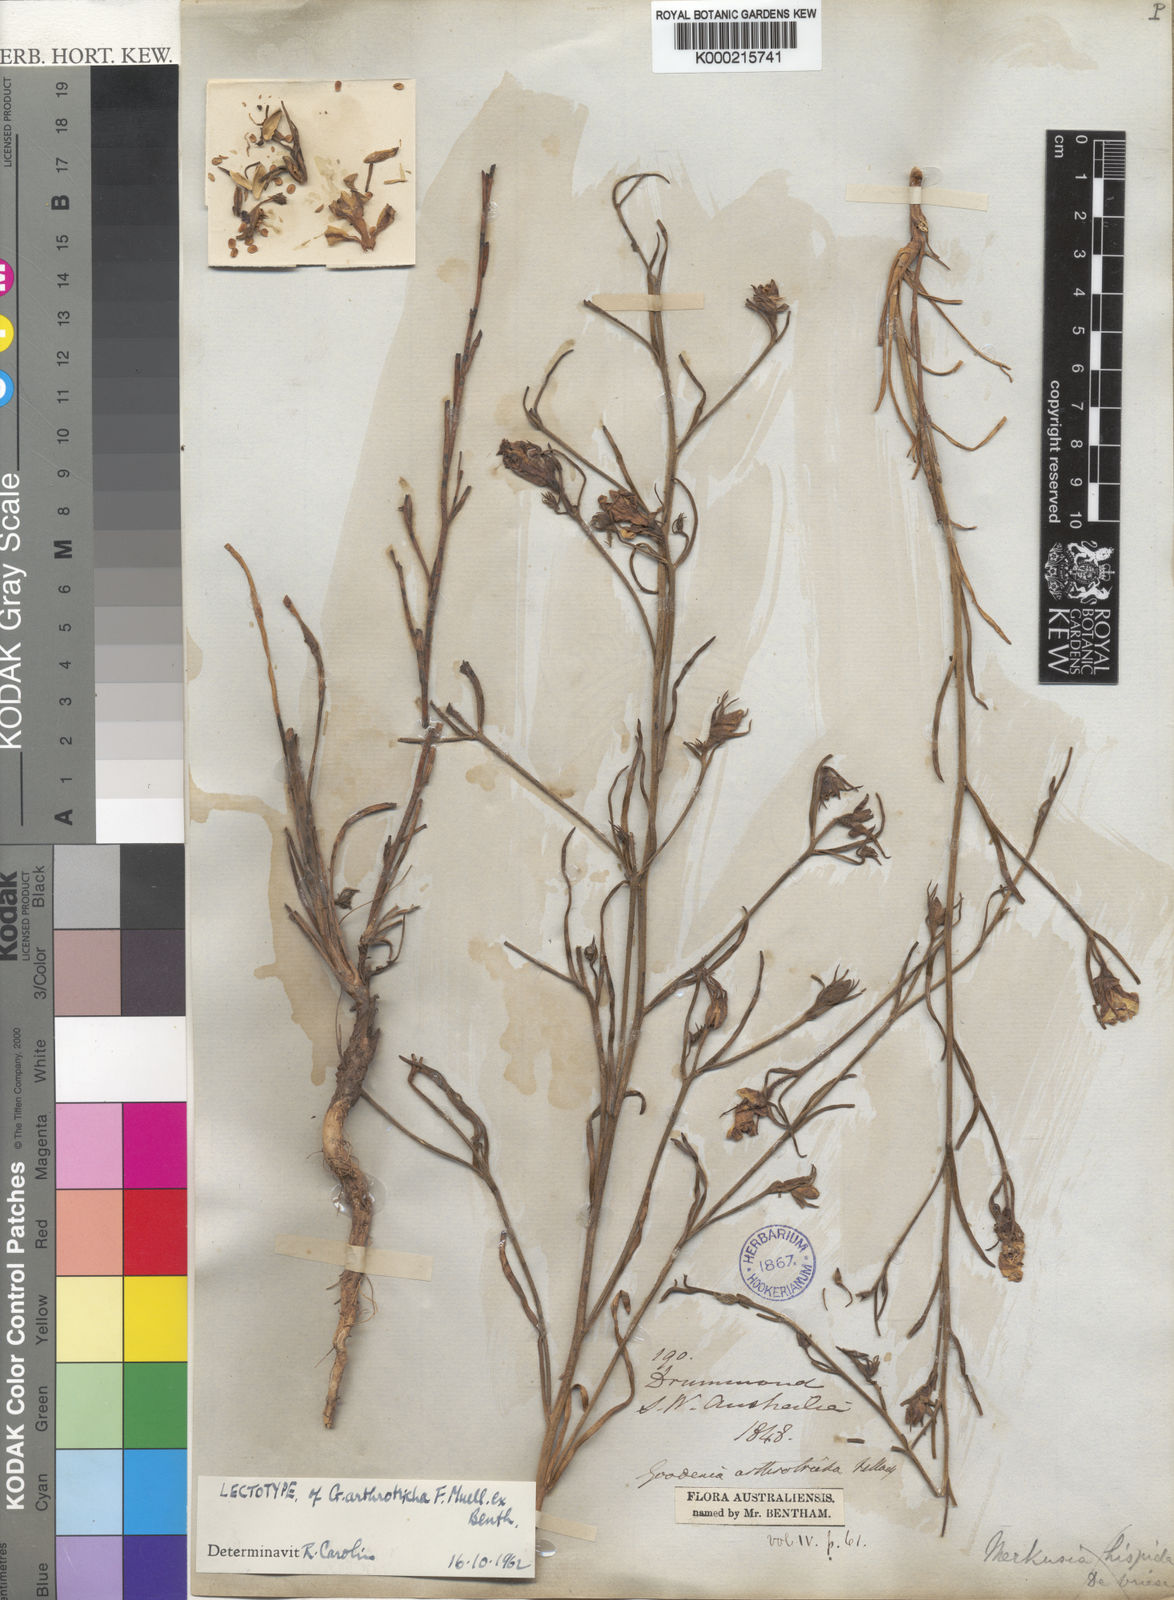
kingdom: Plantae
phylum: Tracheophyta
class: Magnoliopsida
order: Asterales
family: Goodeniaceae
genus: Goodenia
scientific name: Goodenia arthrotricha
